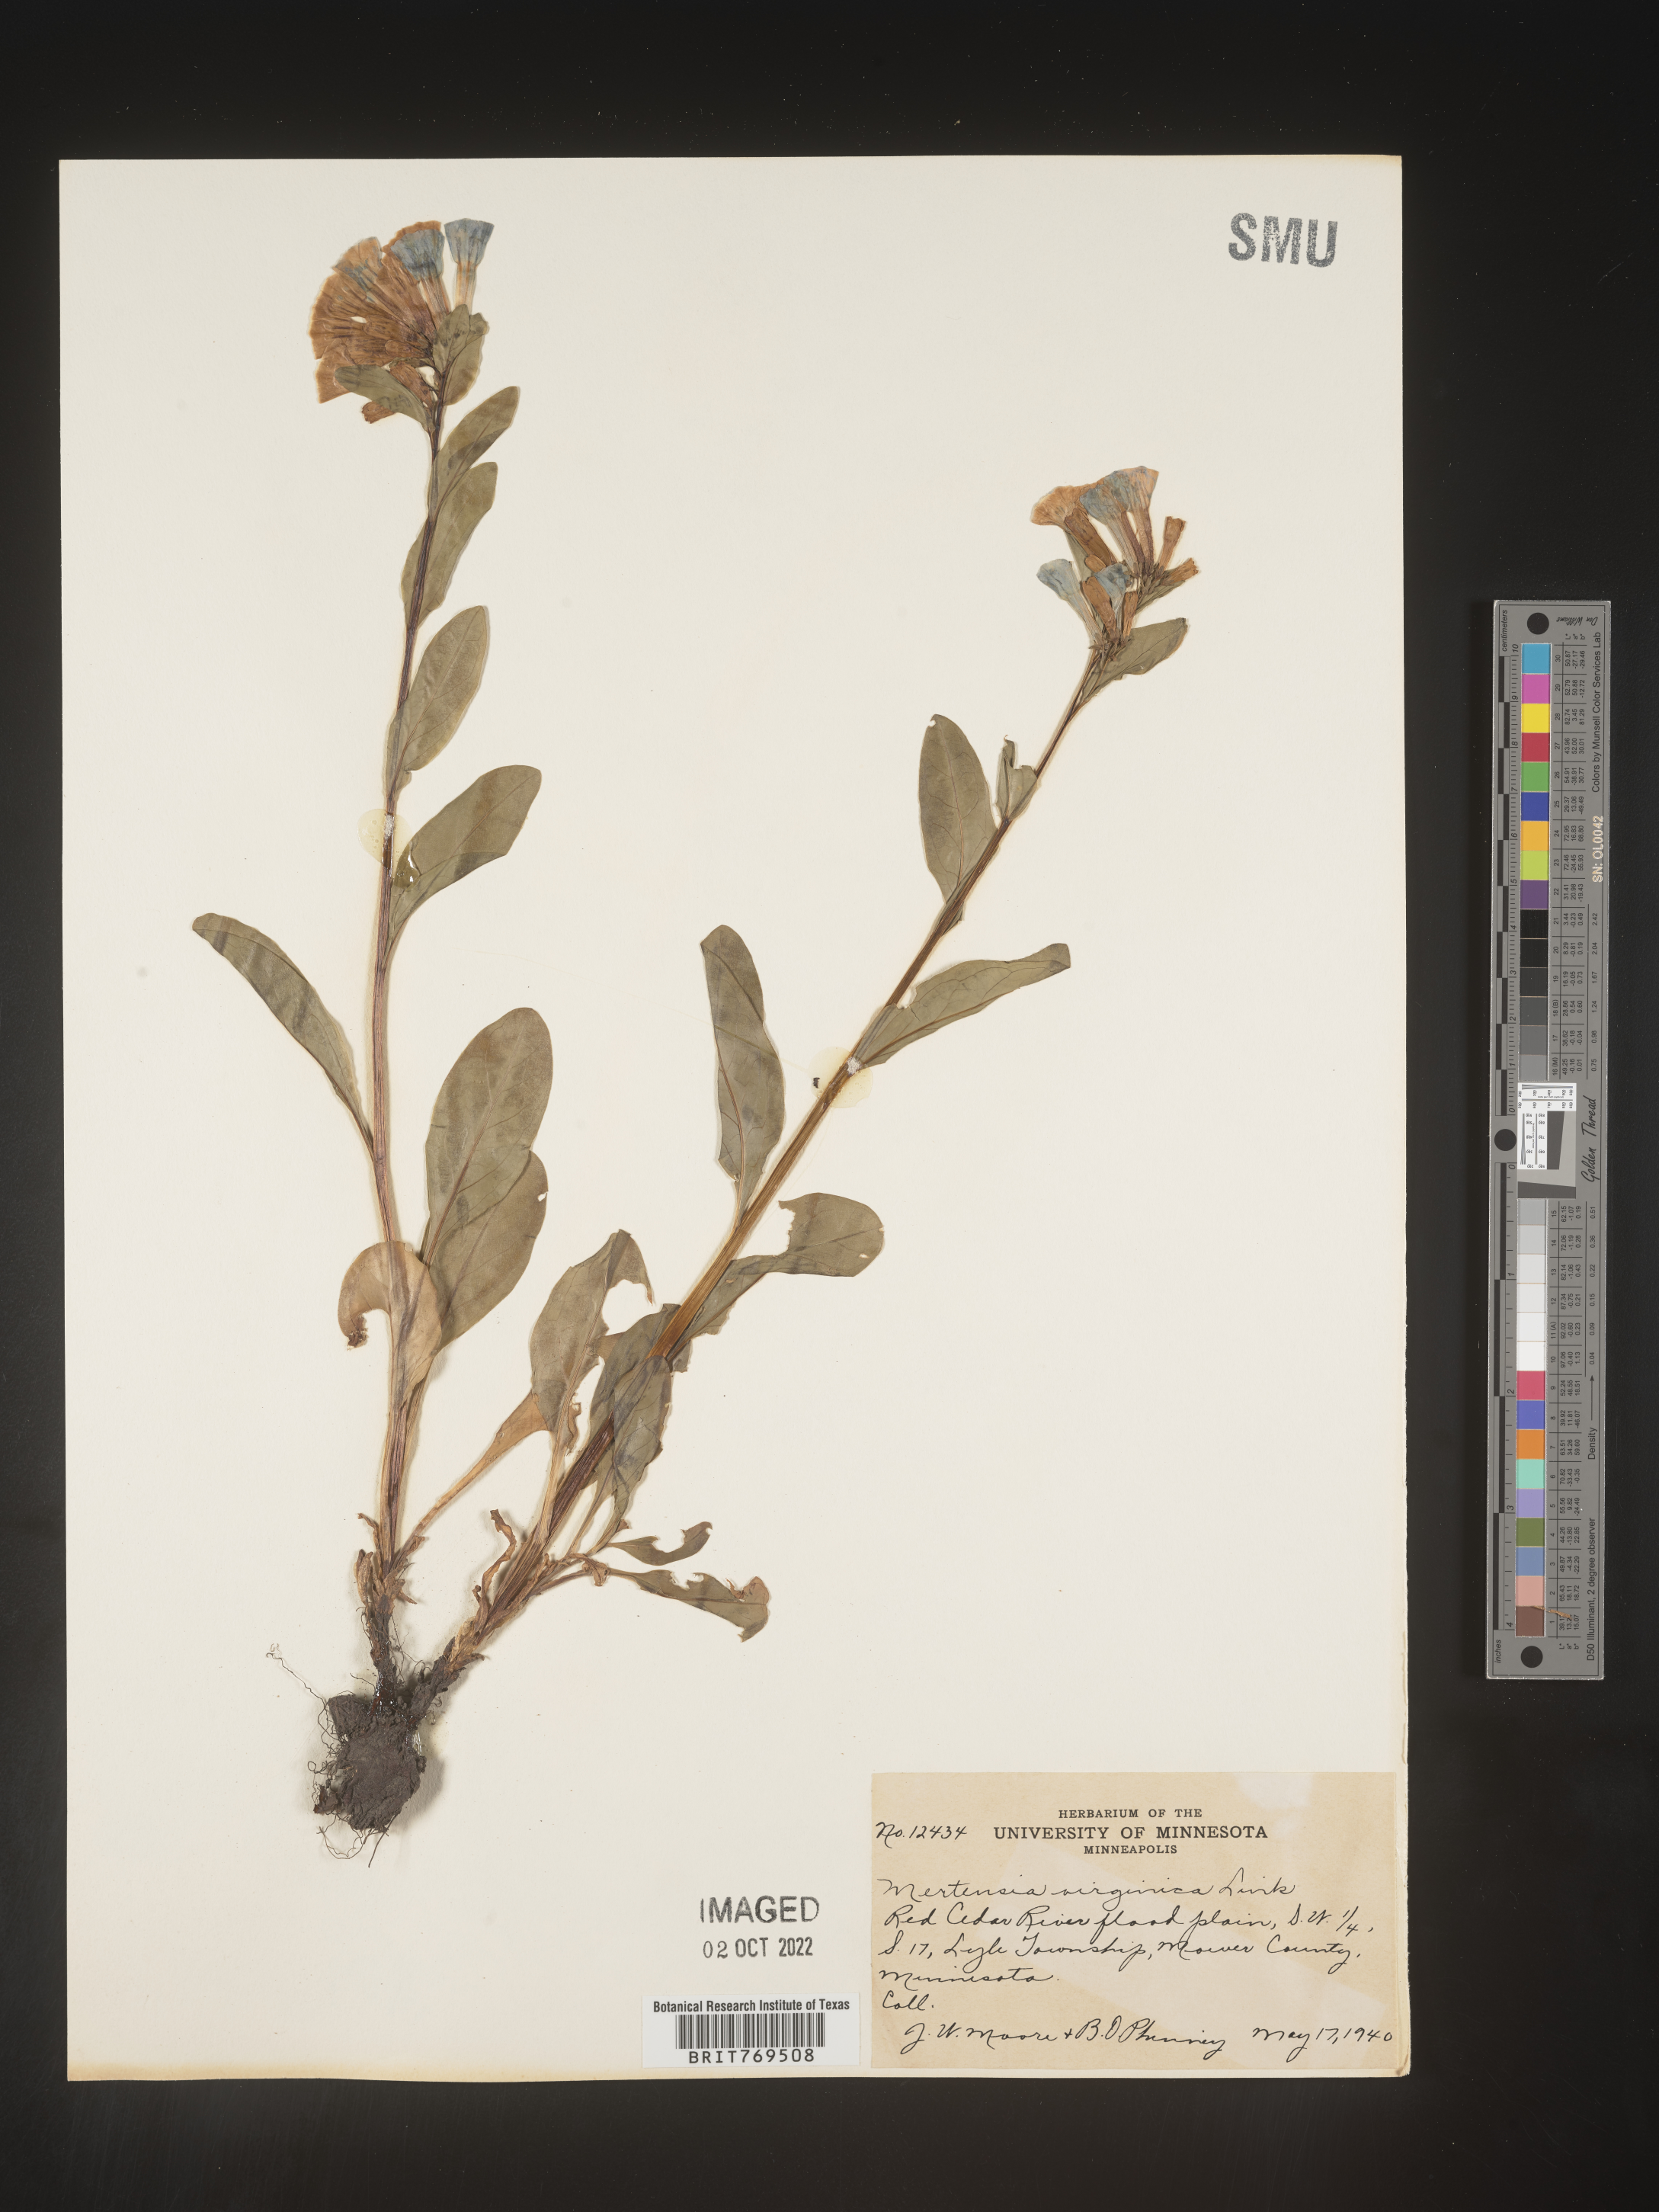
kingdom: Plantae
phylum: Tracheophyta
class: Magnoliopsida
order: Boraginales
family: Boraginaceae
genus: Mertensia
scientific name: Mertensia virginica
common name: Virginia bluebells
